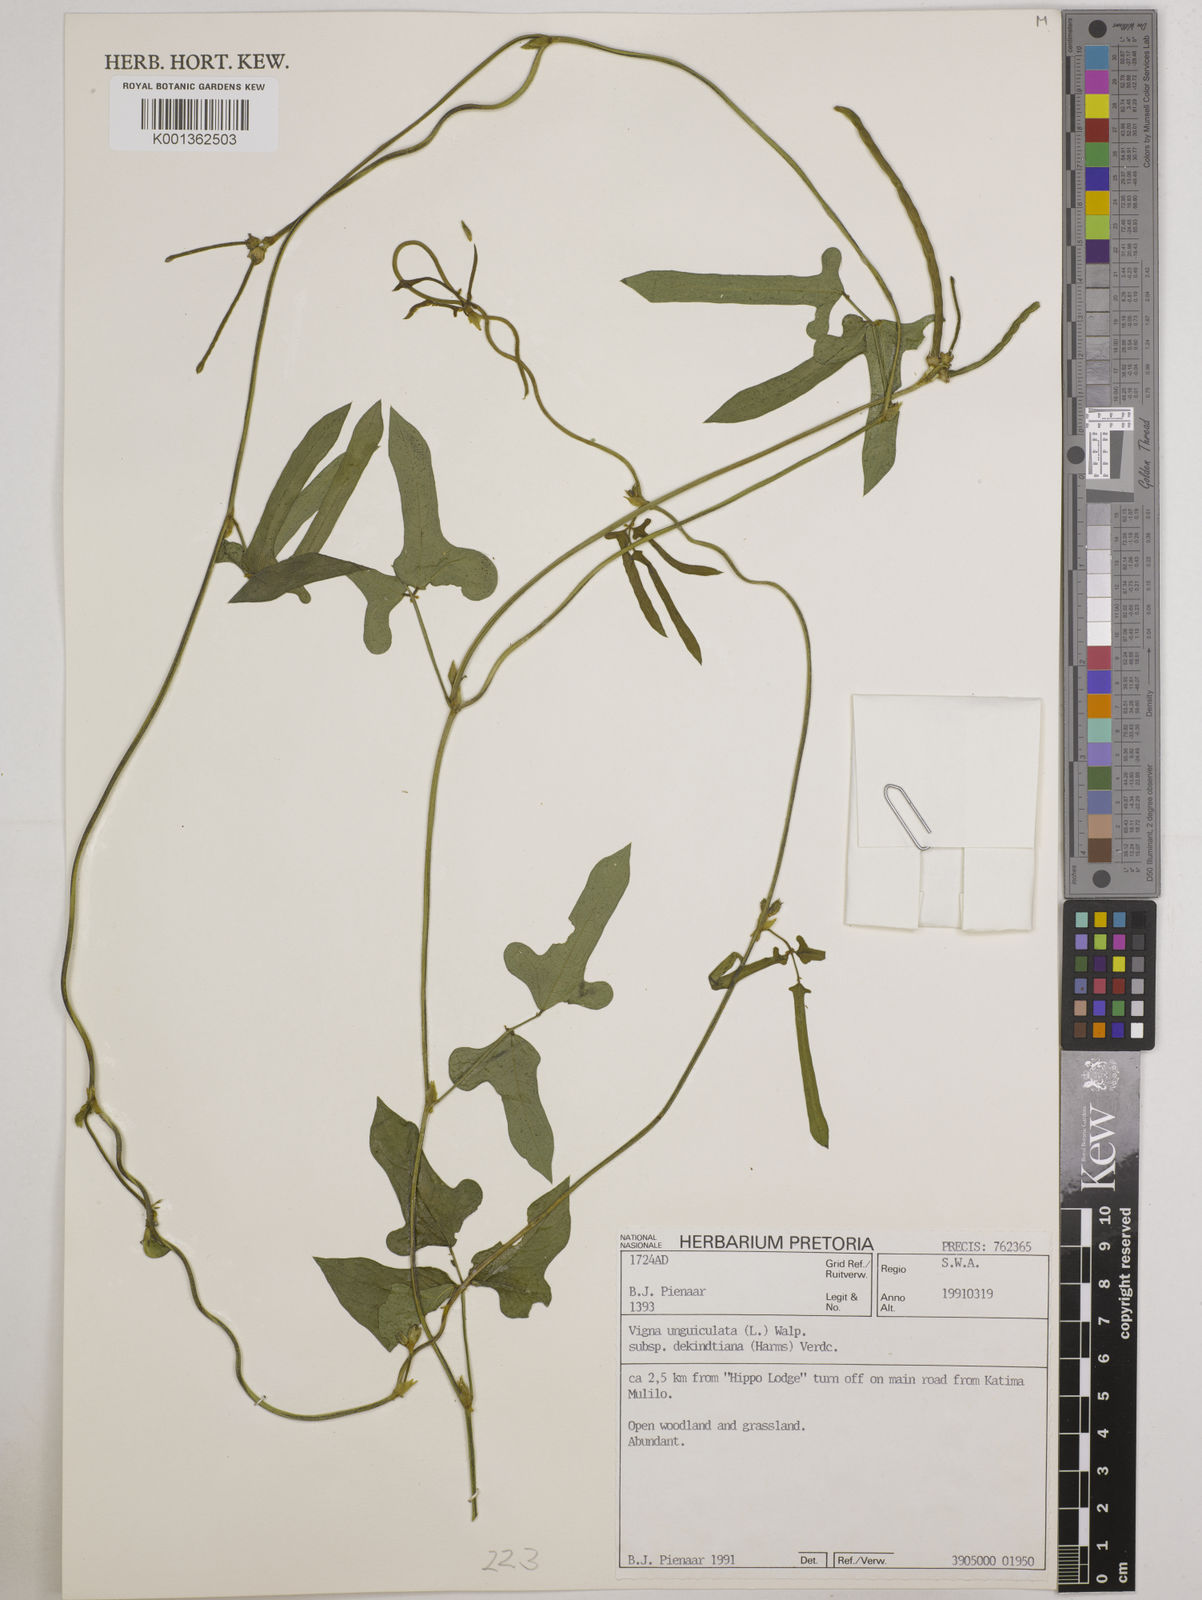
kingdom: Plantae
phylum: Tracheophyta
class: Magnoliopsida
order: Fabales
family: Fabaceae
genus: Vigna
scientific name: Vigna
